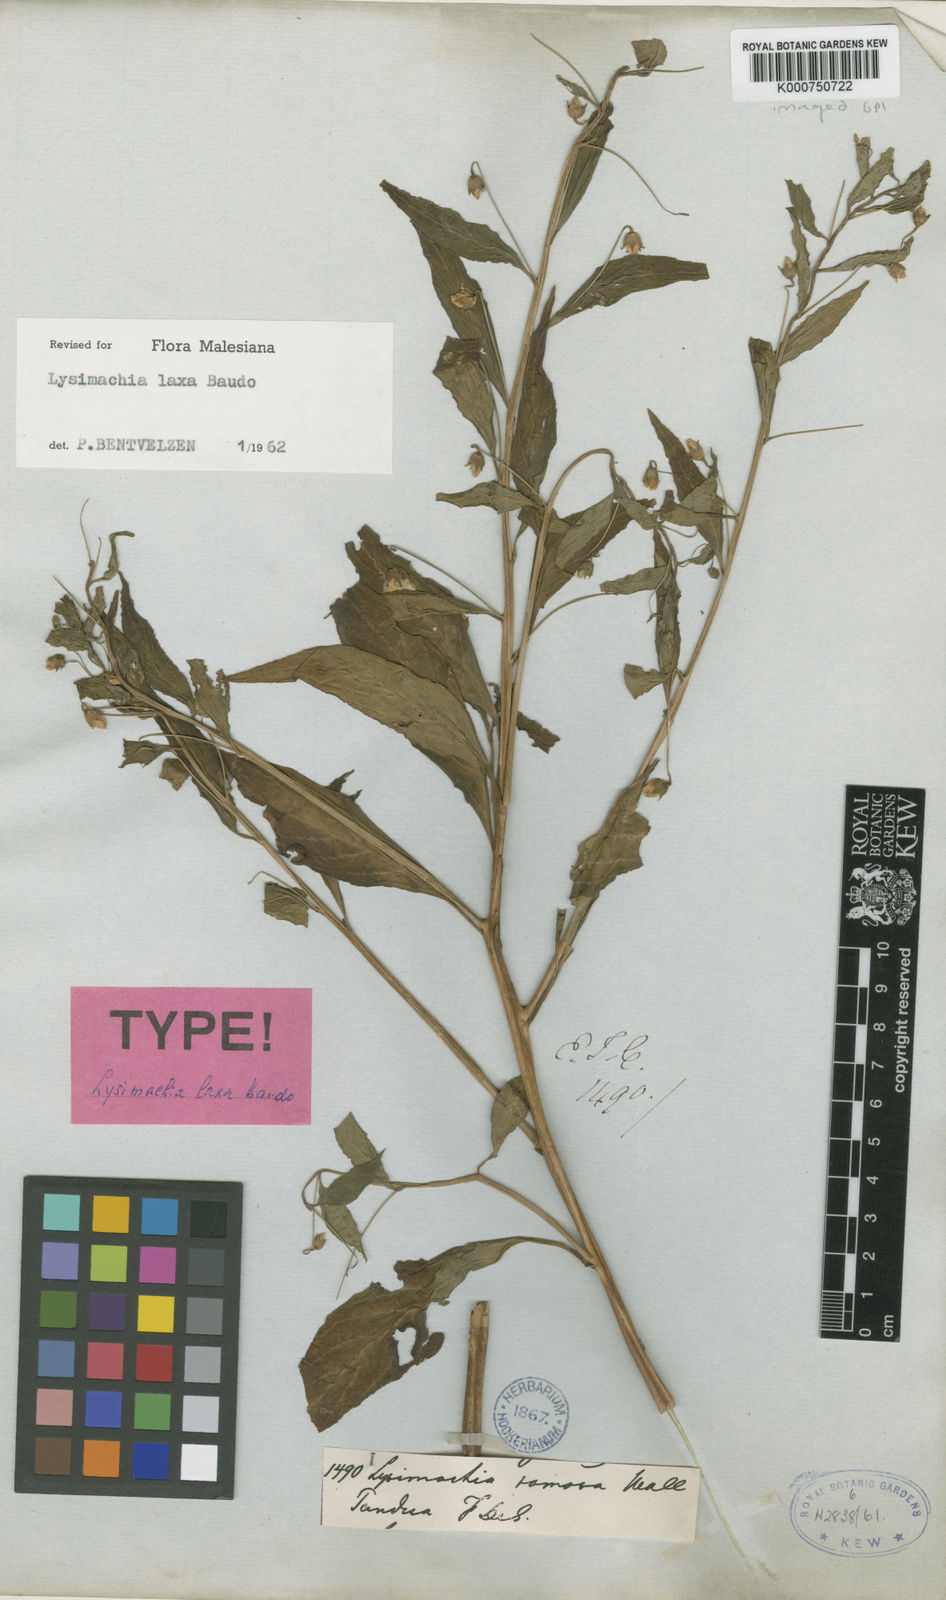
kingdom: Plantae
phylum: Tracheophyta
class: Magnoliopsida
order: Ericales
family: Primulaceae
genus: Lysimachia
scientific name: Lysimachia terrestris
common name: Lake loosestrife
